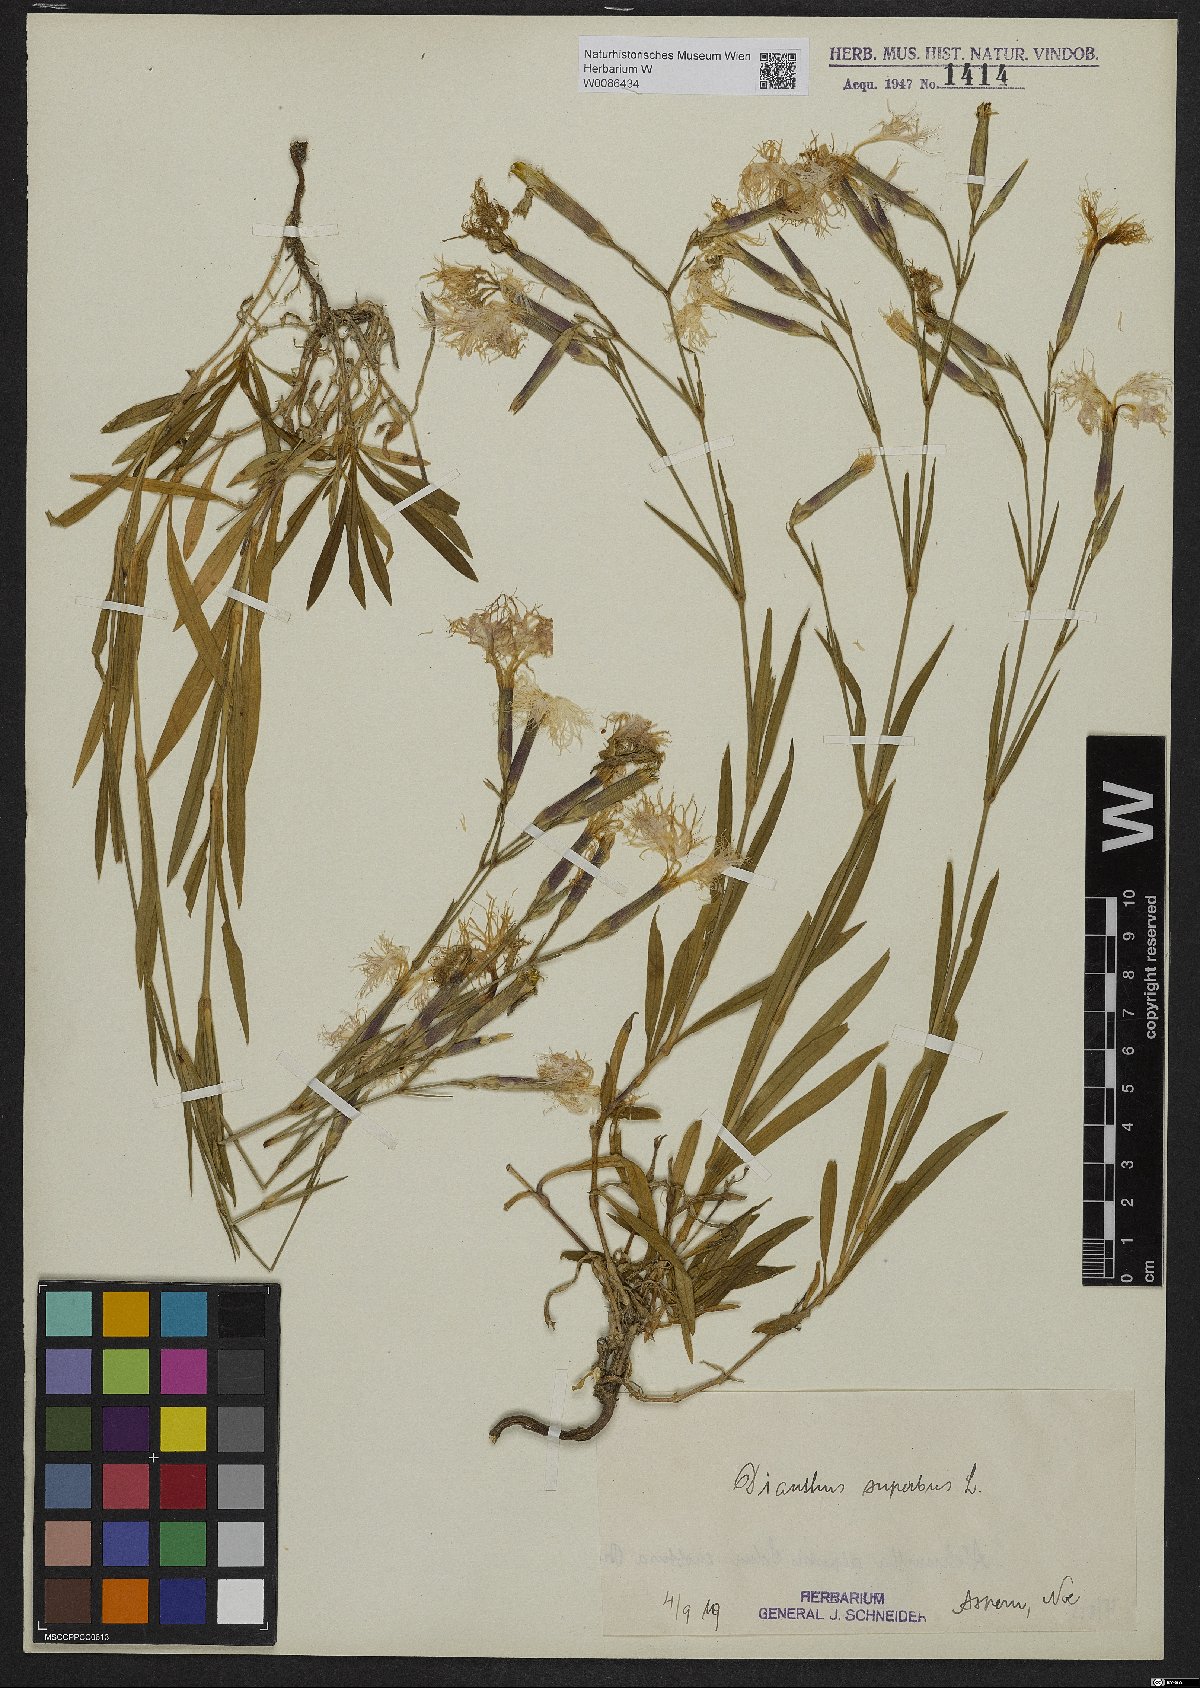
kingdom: Plantae
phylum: Tracheophyta
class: Magnoliopsida
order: Caryophyllales
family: Caryophyllaceae
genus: Dianthus
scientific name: Dianthus superbus
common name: Fringed pink
